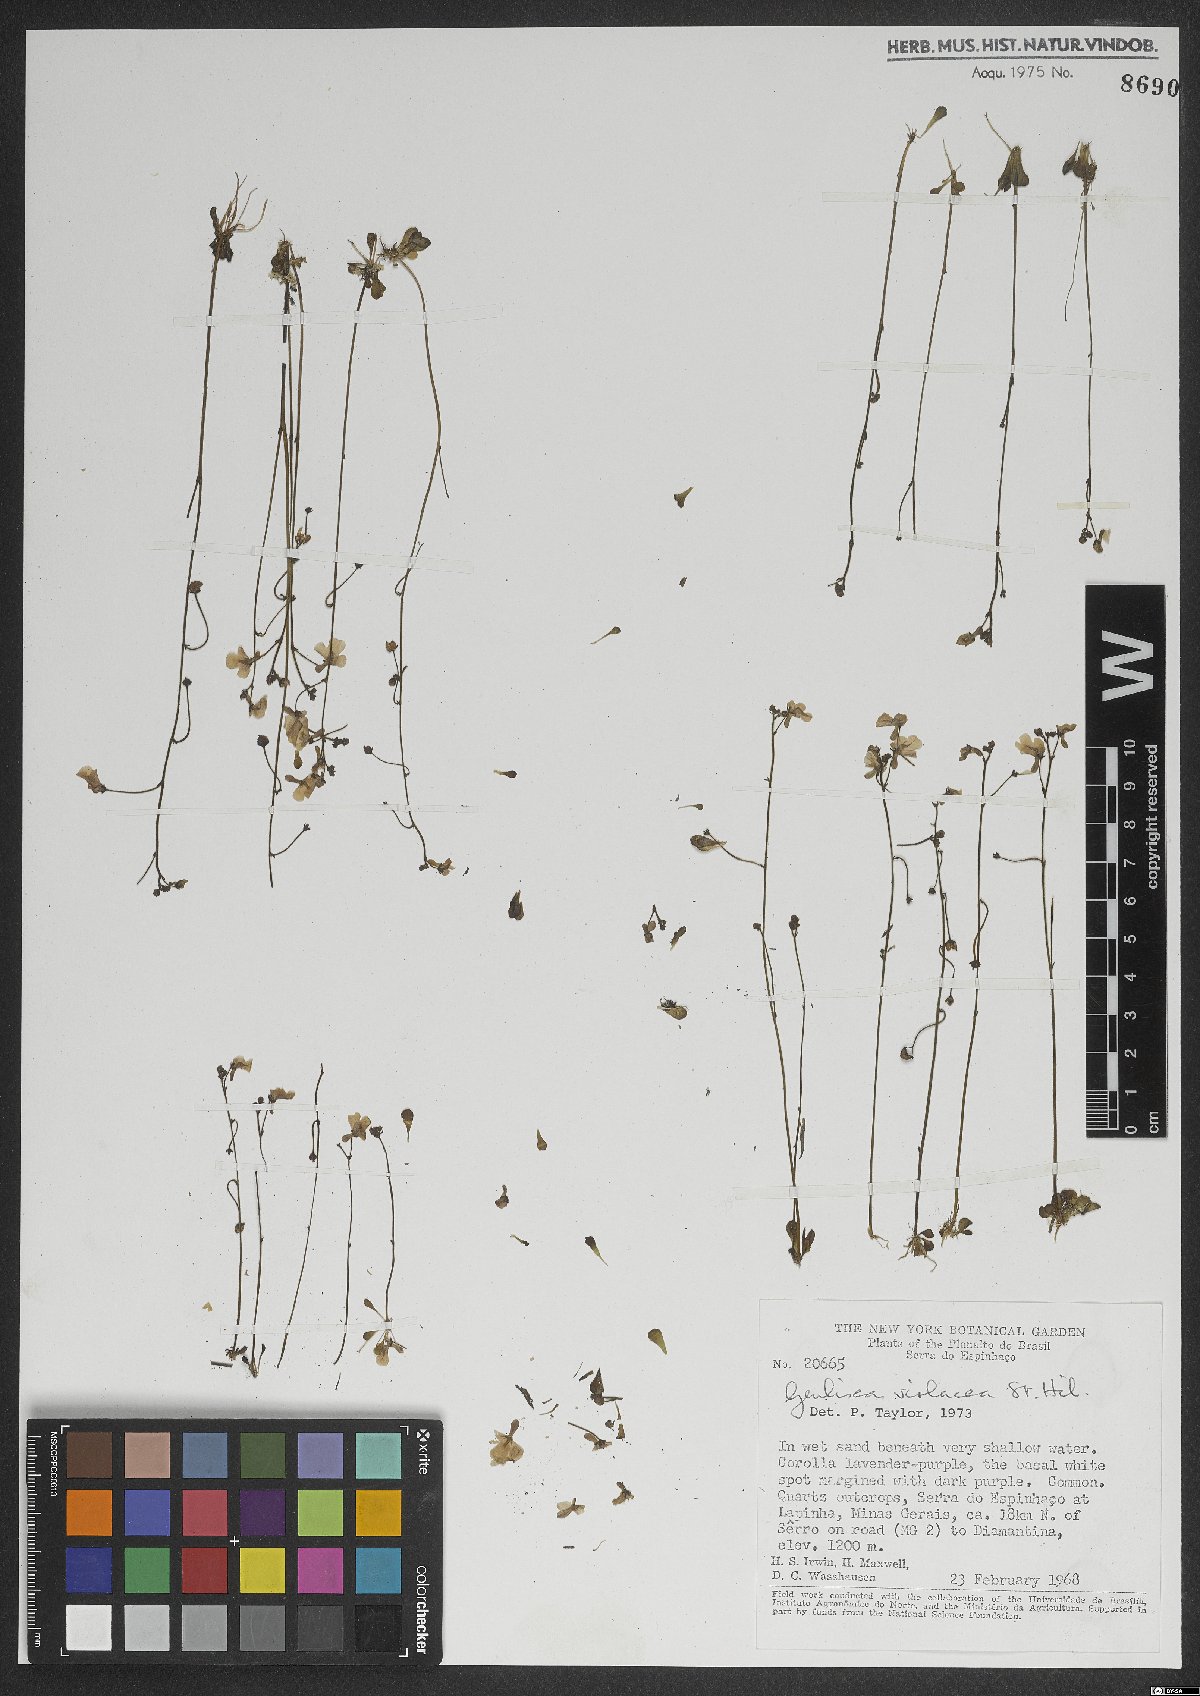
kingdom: Plantae
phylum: Tracheophyta
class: Magnoliopsida
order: Lamiales
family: Lentibulariaceae
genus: Genlisea
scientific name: Genlisea violacea
